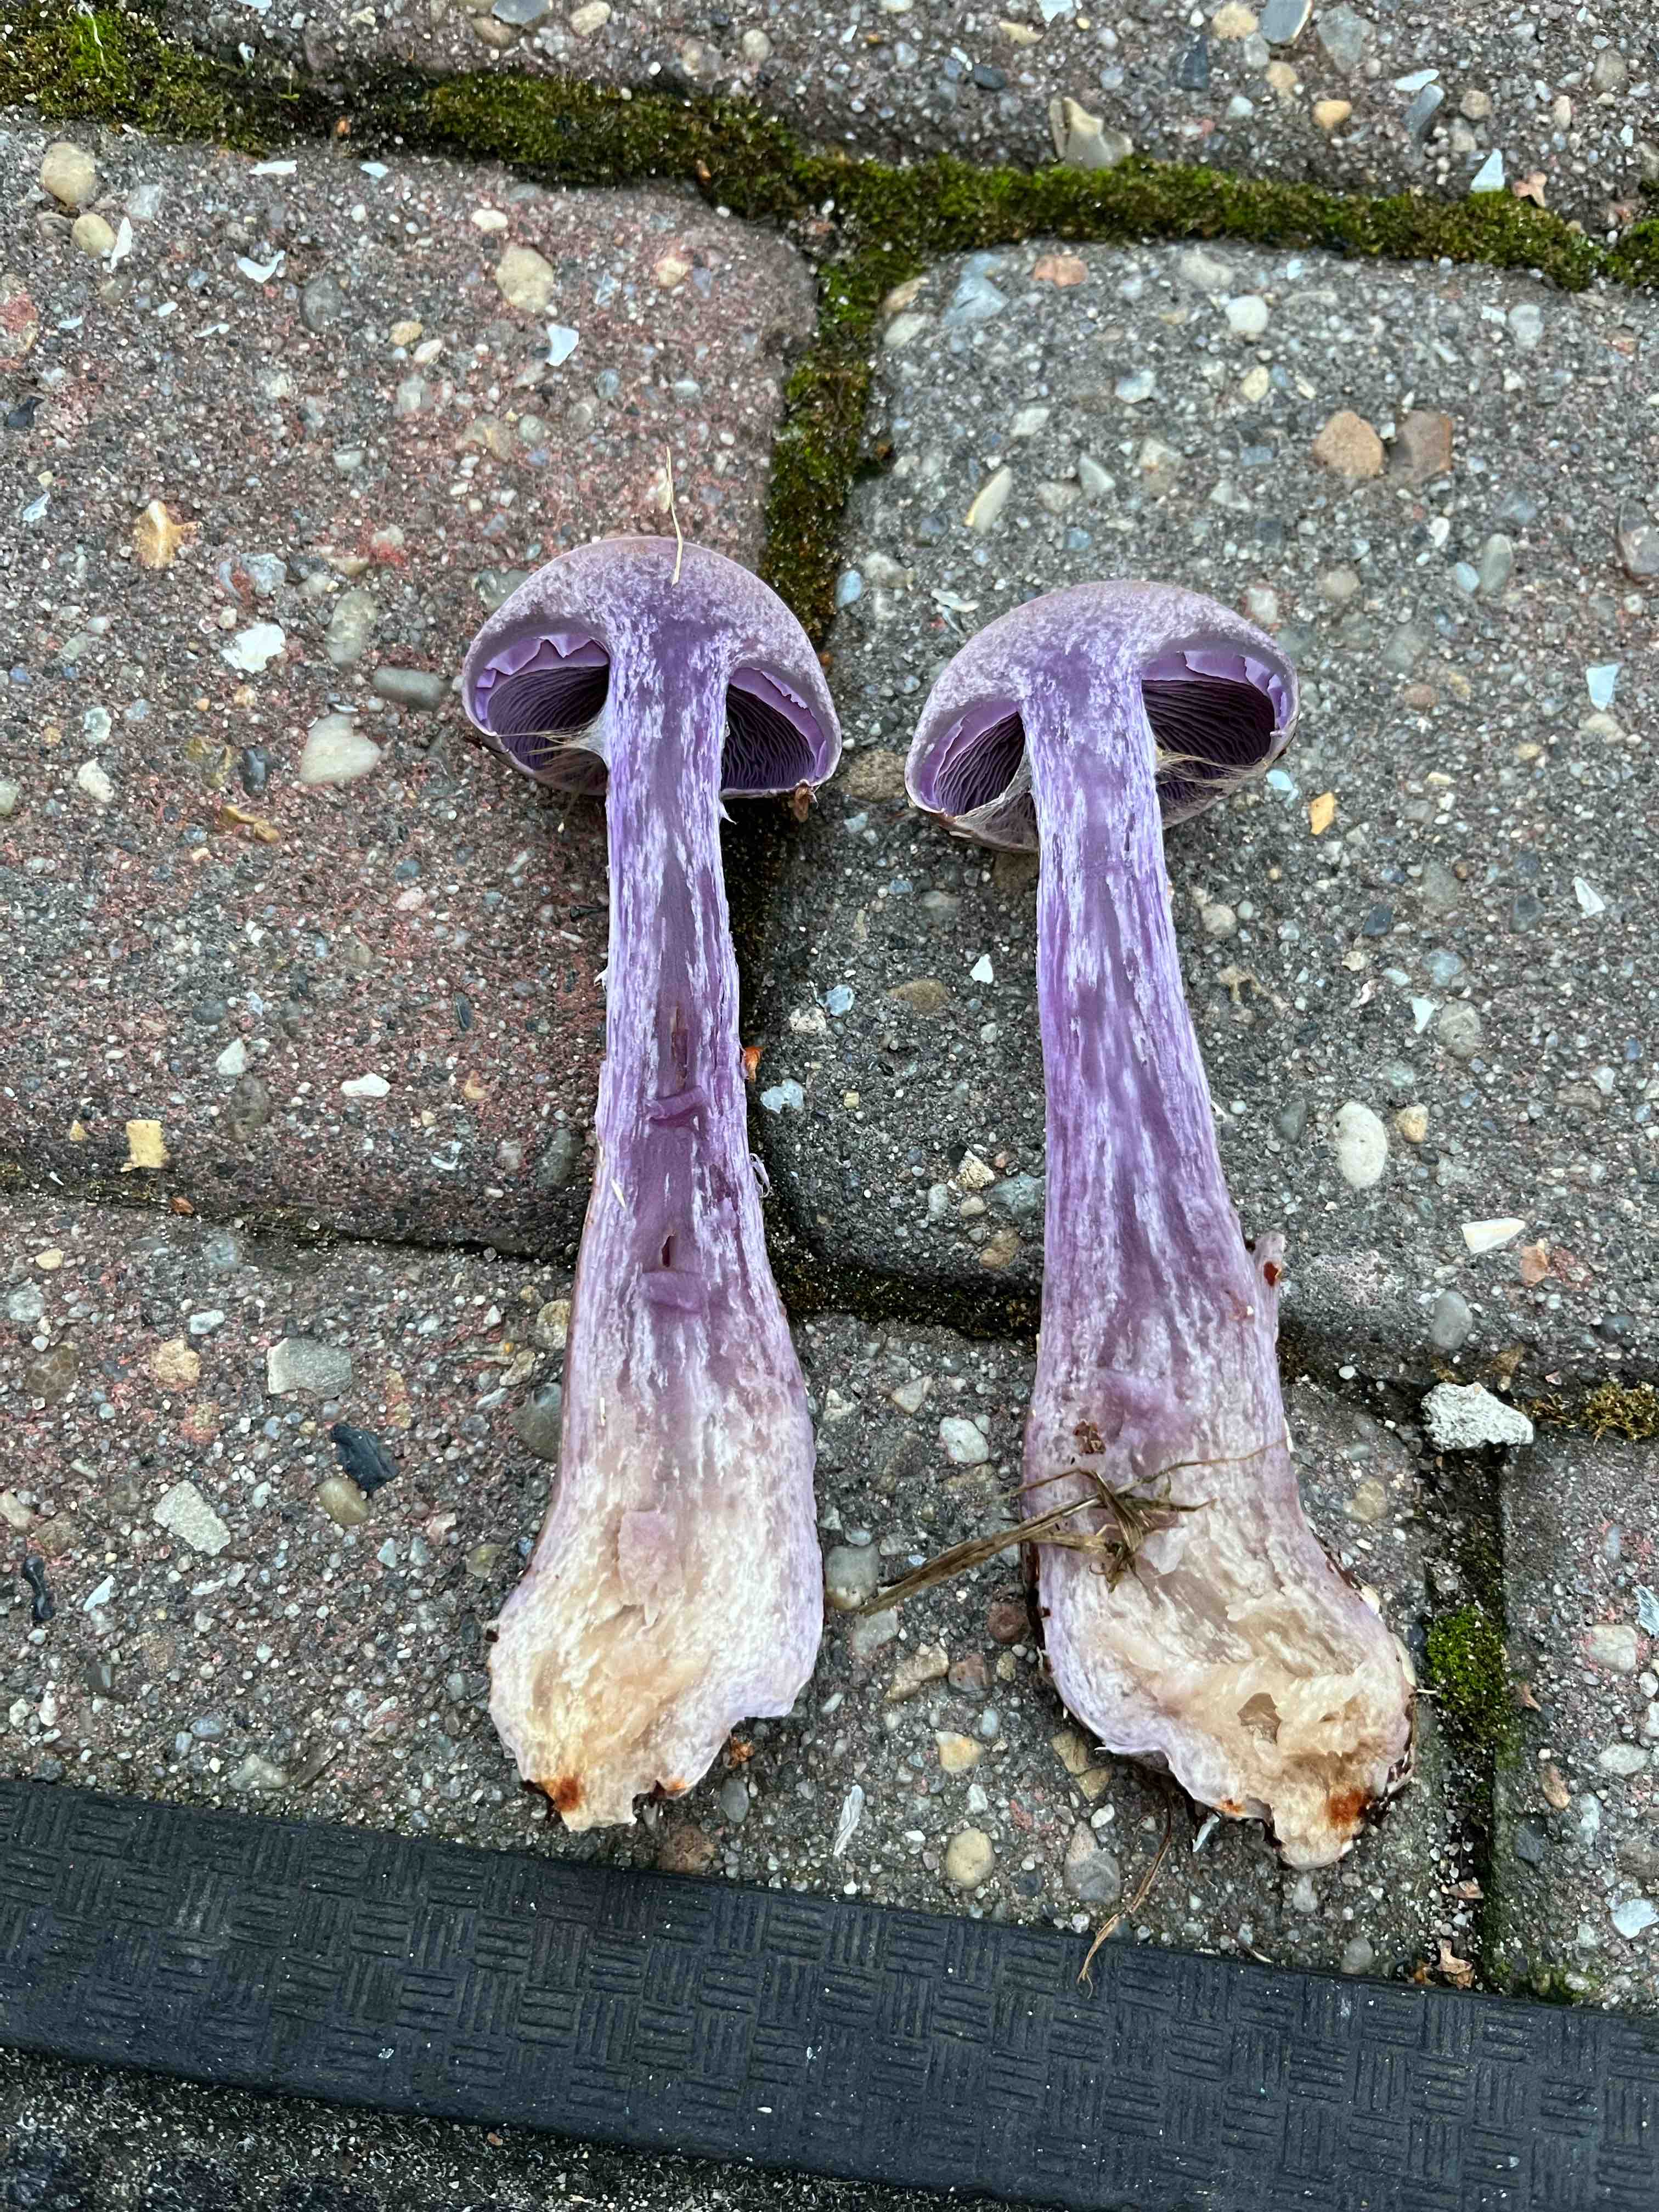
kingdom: Fungi
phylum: Basidiomycota
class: Agaricomycetes
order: Agaricales
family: Cortinariaceae
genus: Cortinarius
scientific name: Cortinarius camphoratus
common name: stinkende slørhat
